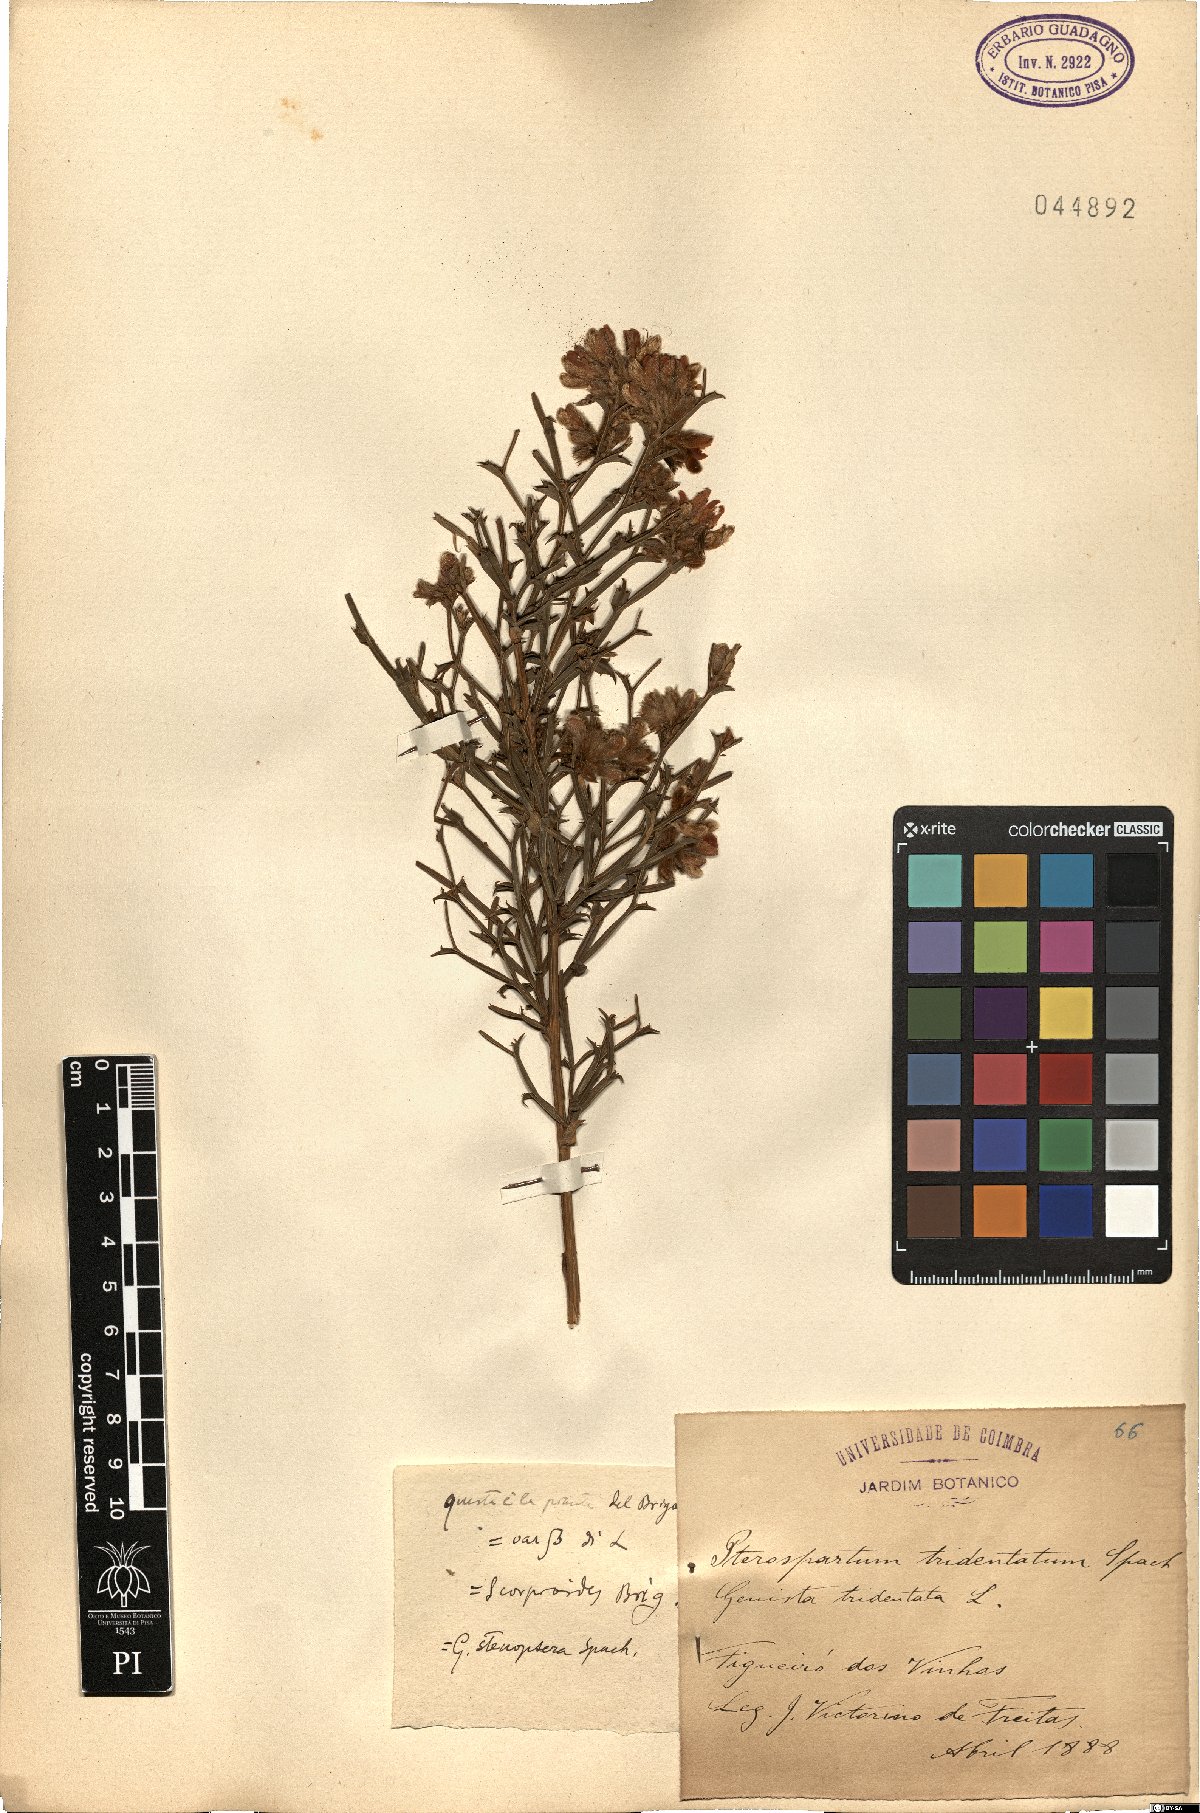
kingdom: Plantae
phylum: Tracheophyta
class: Magnoliopsida
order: Fabales
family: Fabaceae
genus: Genista
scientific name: Genista tridentata
